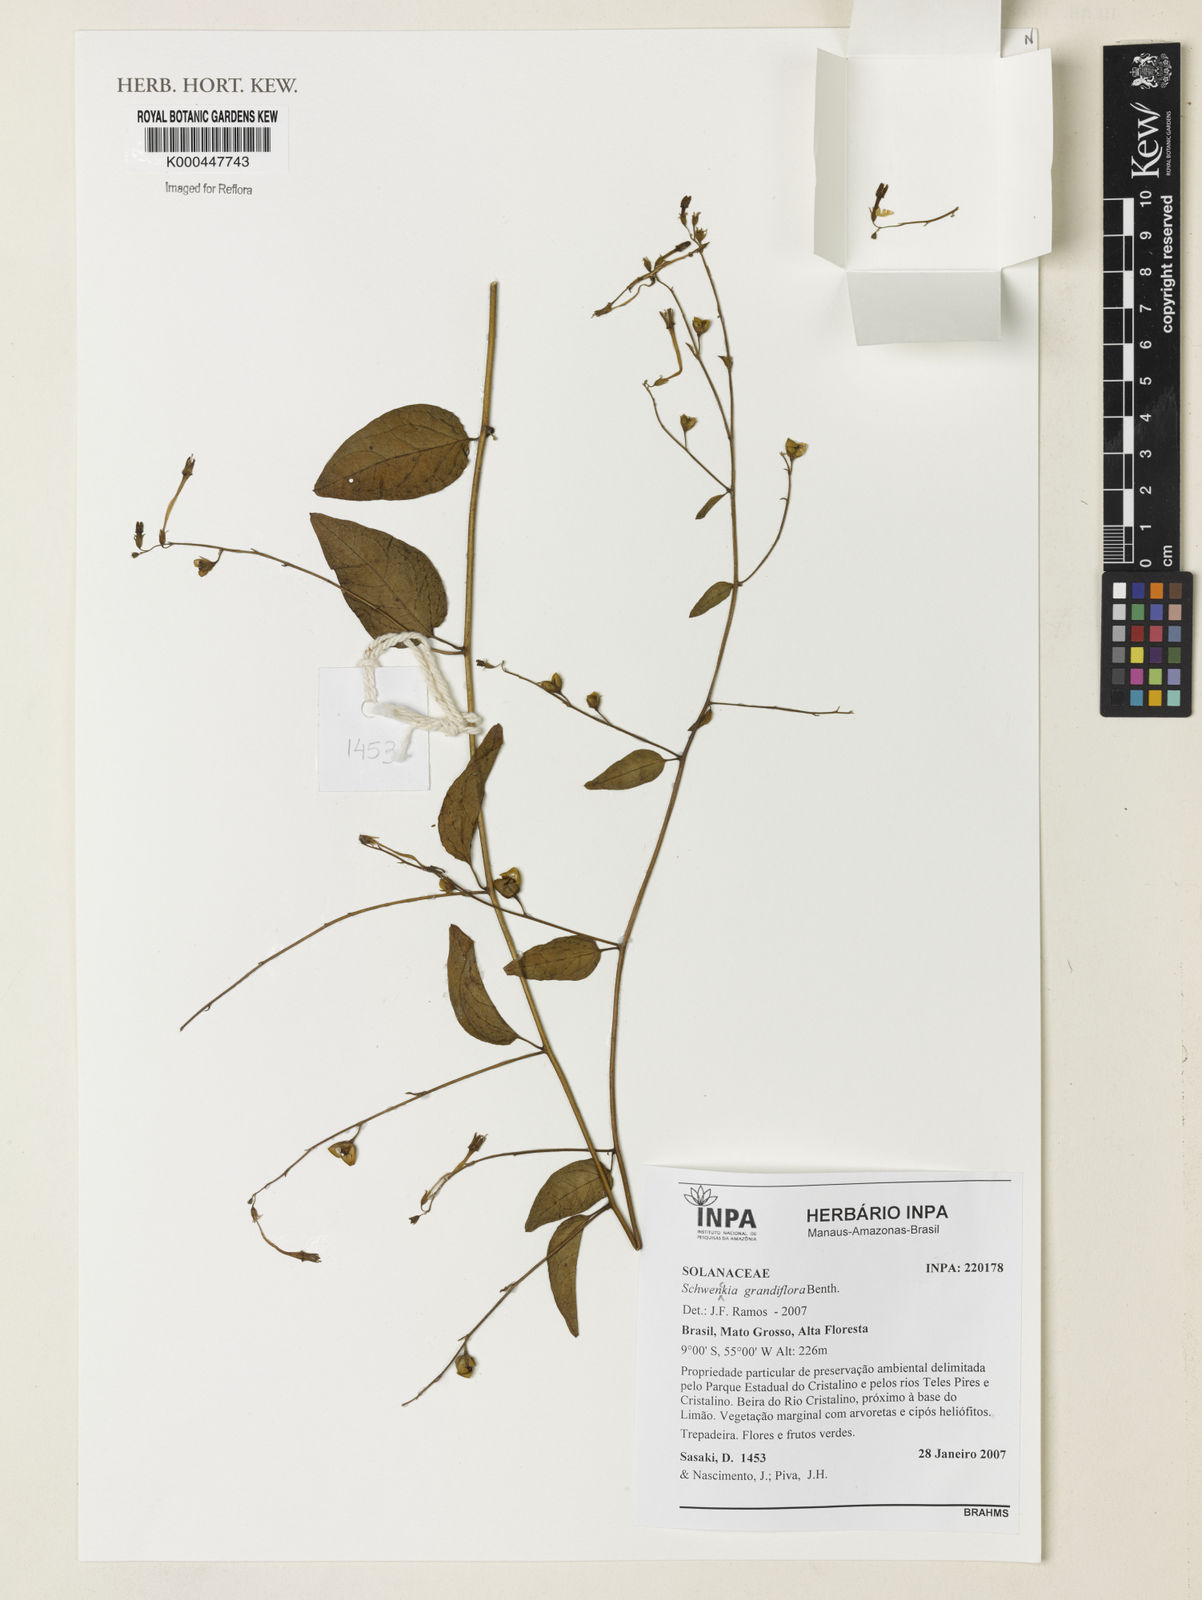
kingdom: Plantae
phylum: Tracheophyta
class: Magnoliopsida
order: Solanales
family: Solanaceae
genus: Schwenckia
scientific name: Schwenckia grandiflora
